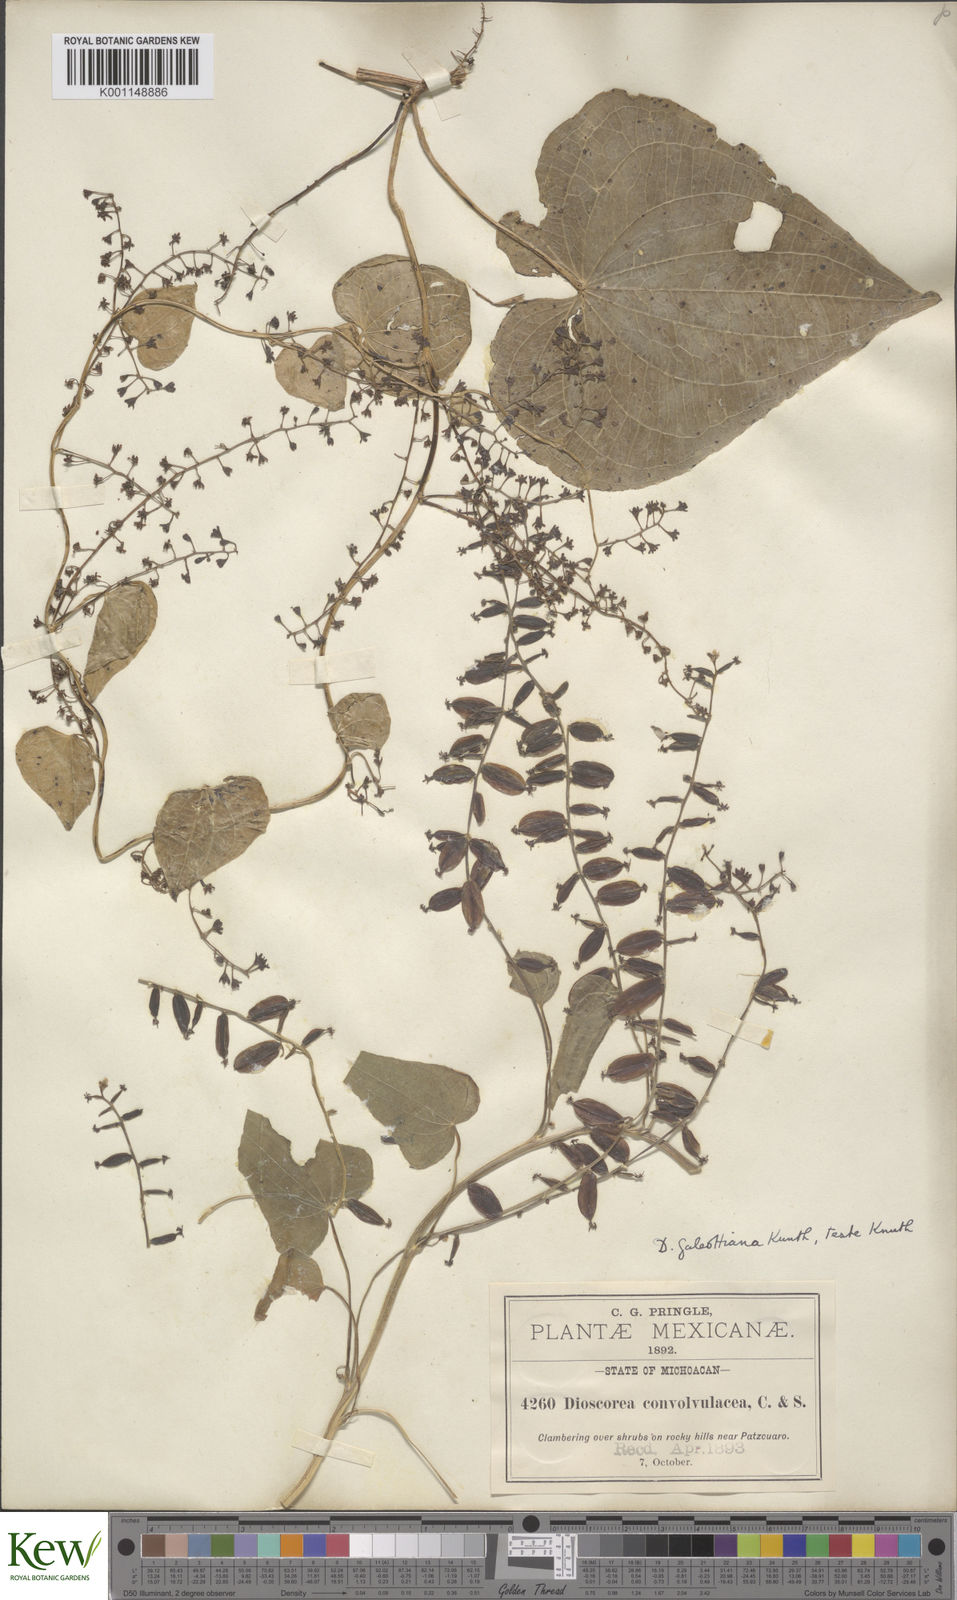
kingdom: Plantae
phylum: Tracheophyta
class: Liliopsida
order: Dioscoreales
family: Dioscoreaceae
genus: Dioscorea
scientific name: Dioscorea galeottiana
